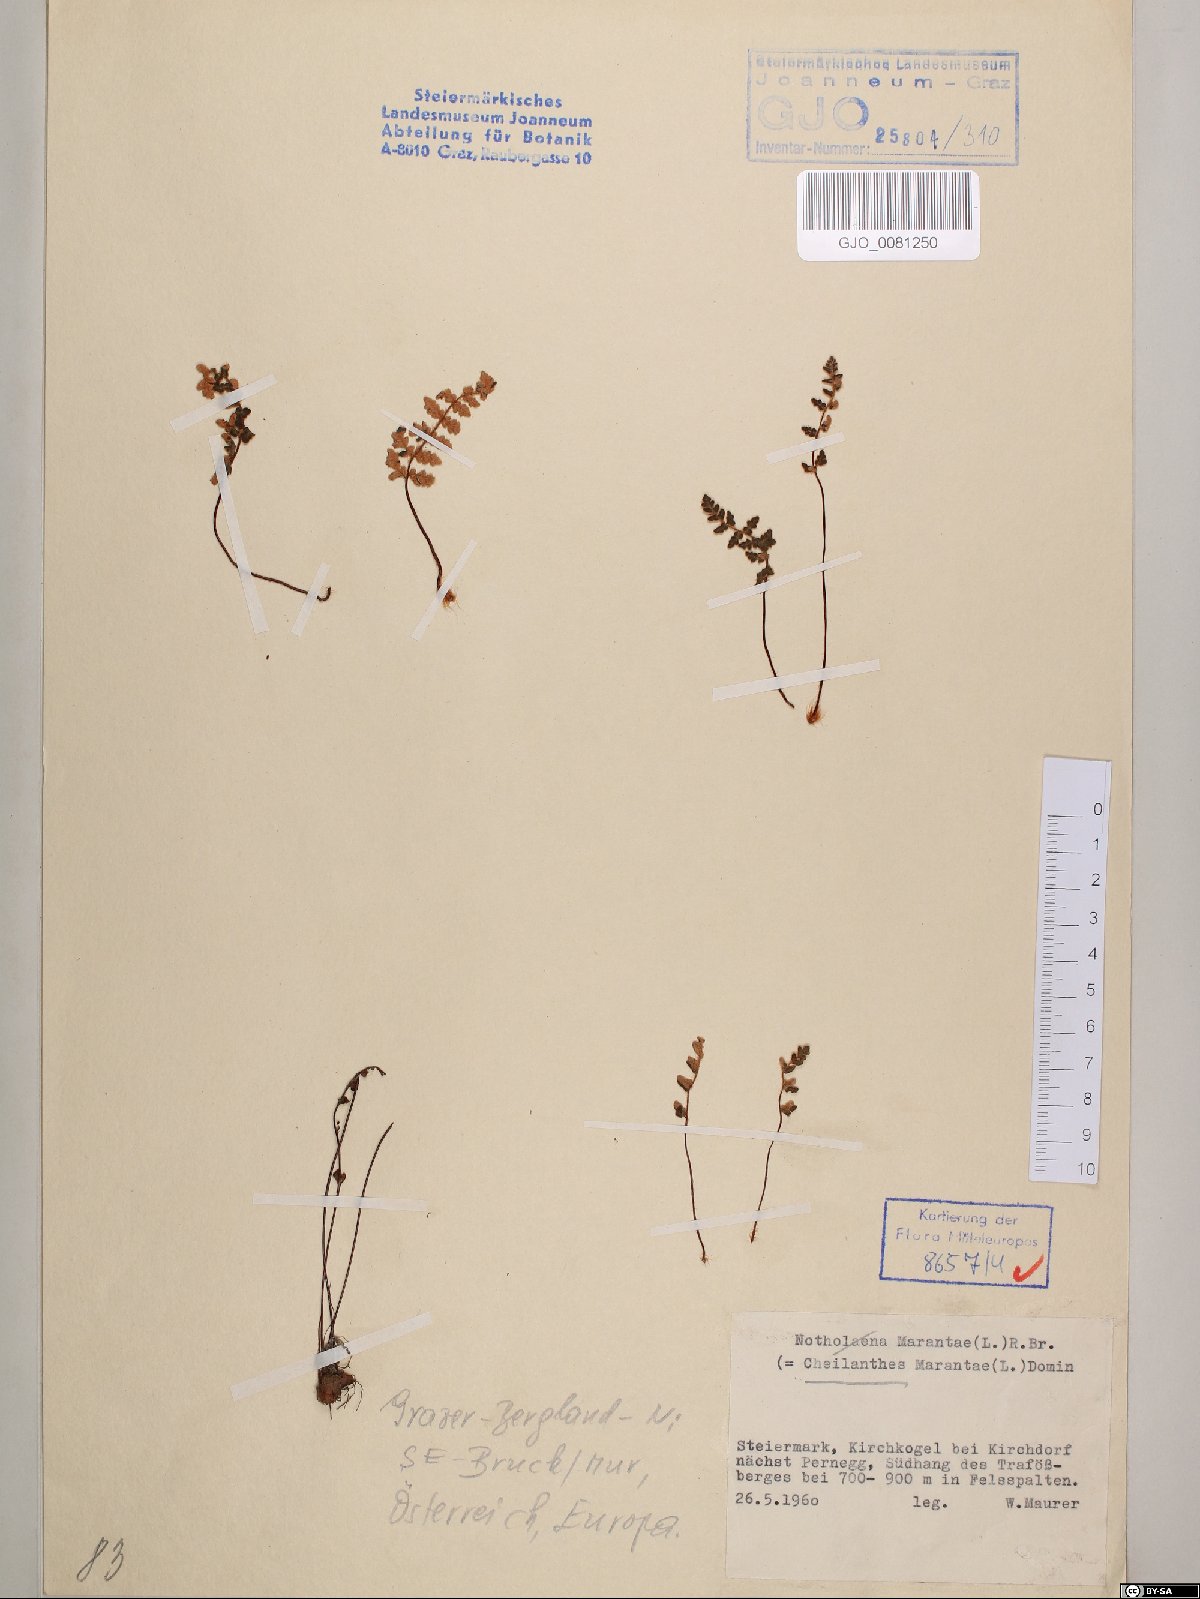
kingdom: Plantae
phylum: Tracheophyta
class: Polypodiopsida
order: Polypodiales
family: Pteridaceae
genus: Paragymnopteris
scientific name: Paragymnopteris marantae
